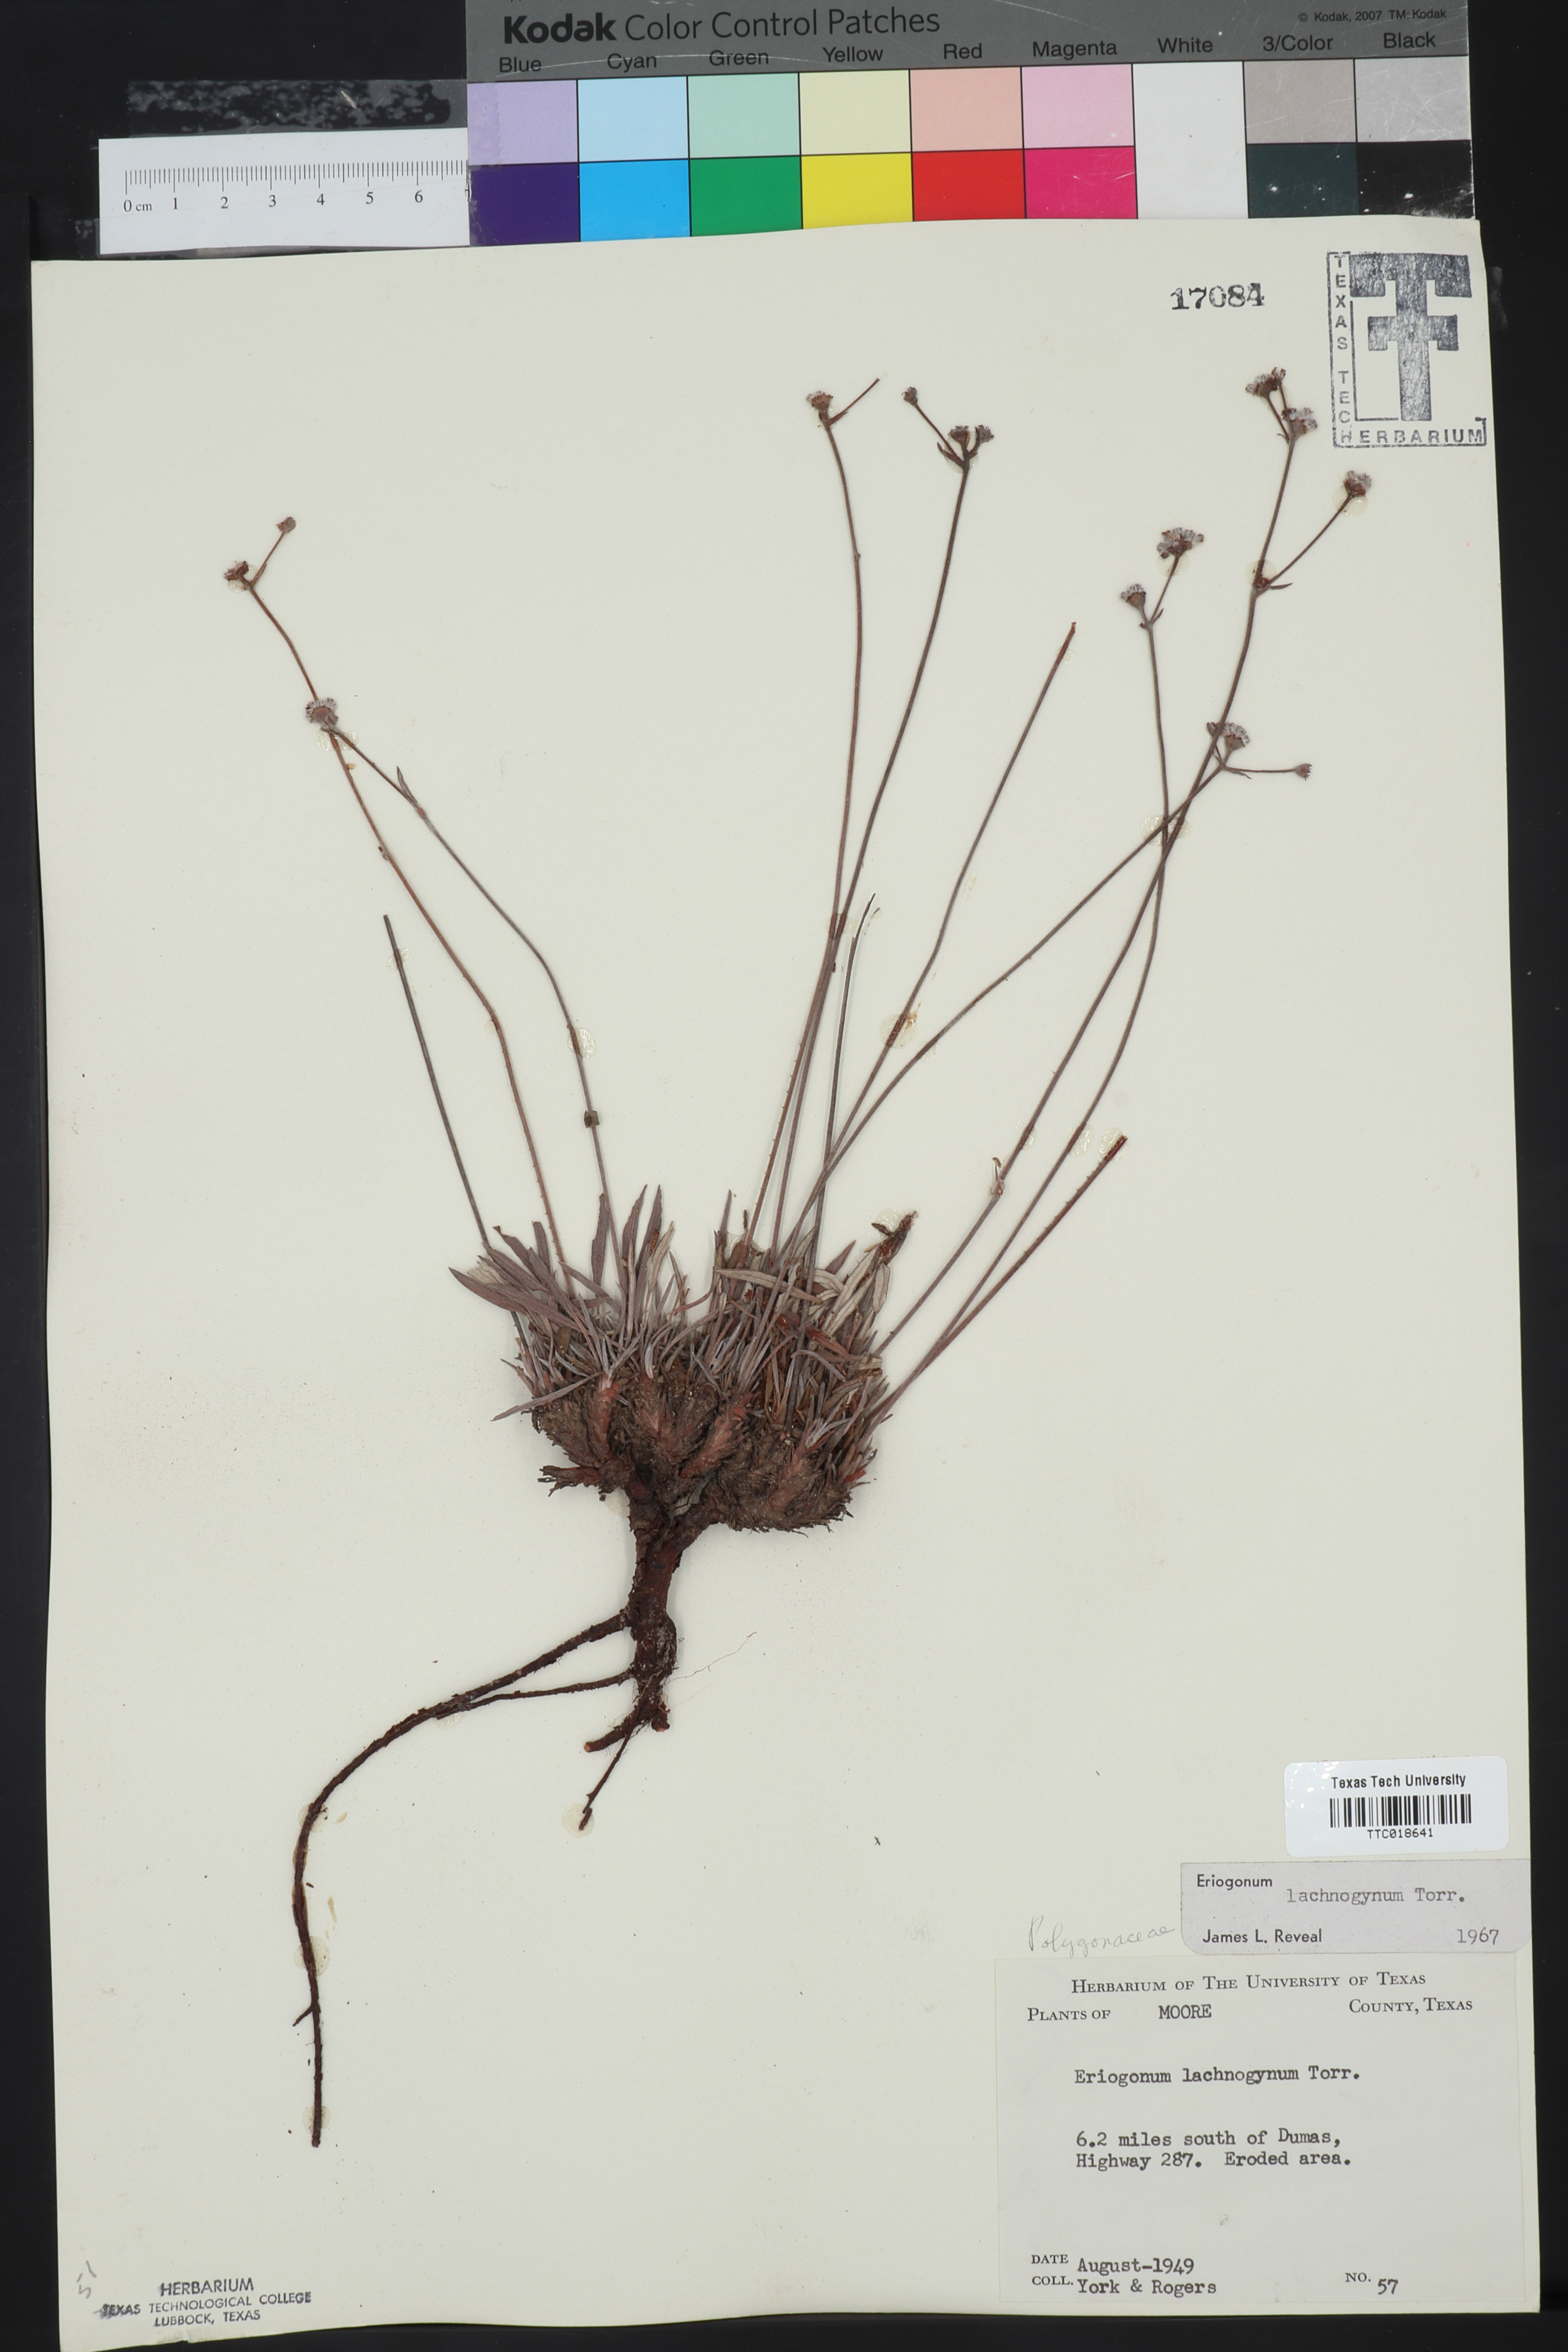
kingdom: Plantae
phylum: Tracheophyta
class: Magnoliopsida
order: Caryophyllales
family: Polygonaceae
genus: Eriogonum
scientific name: Eriogonum lachnogynum
